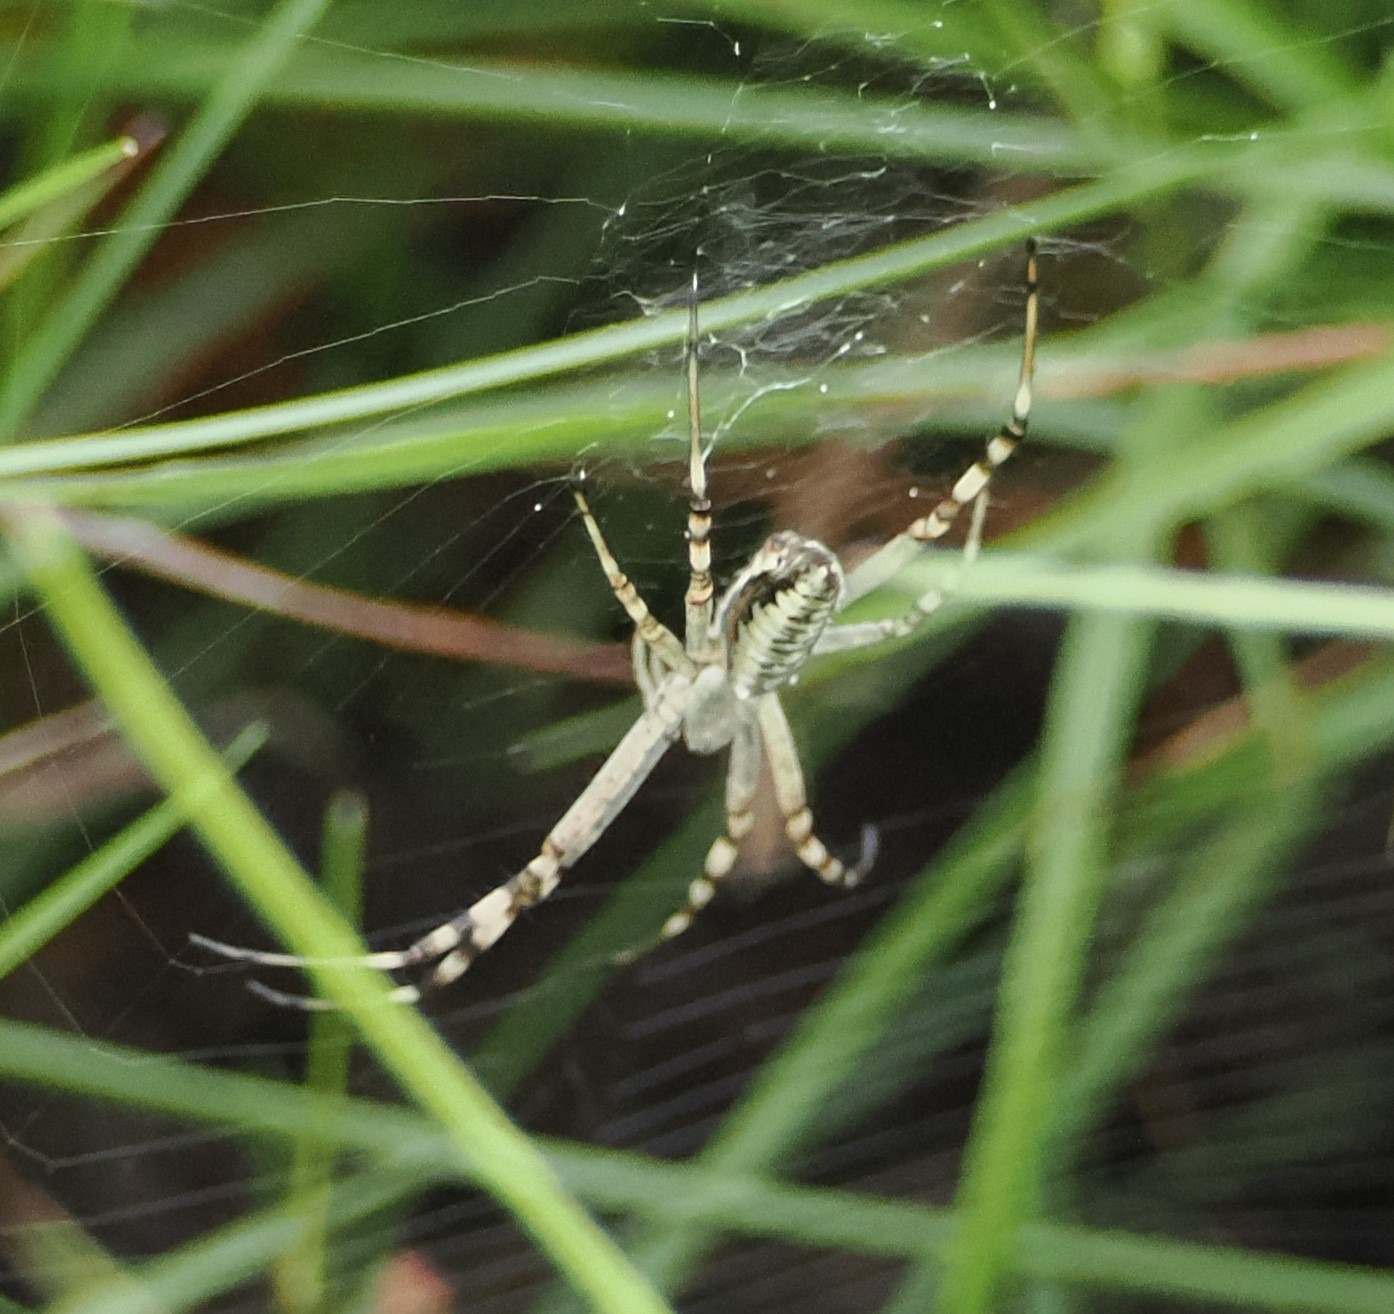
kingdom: Animalia
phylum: Arthropoda
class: Arachnida
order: Araneae
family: Araneidae
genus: Argiope
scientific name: Argiope bruennichi
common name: Hvepseedderkop
